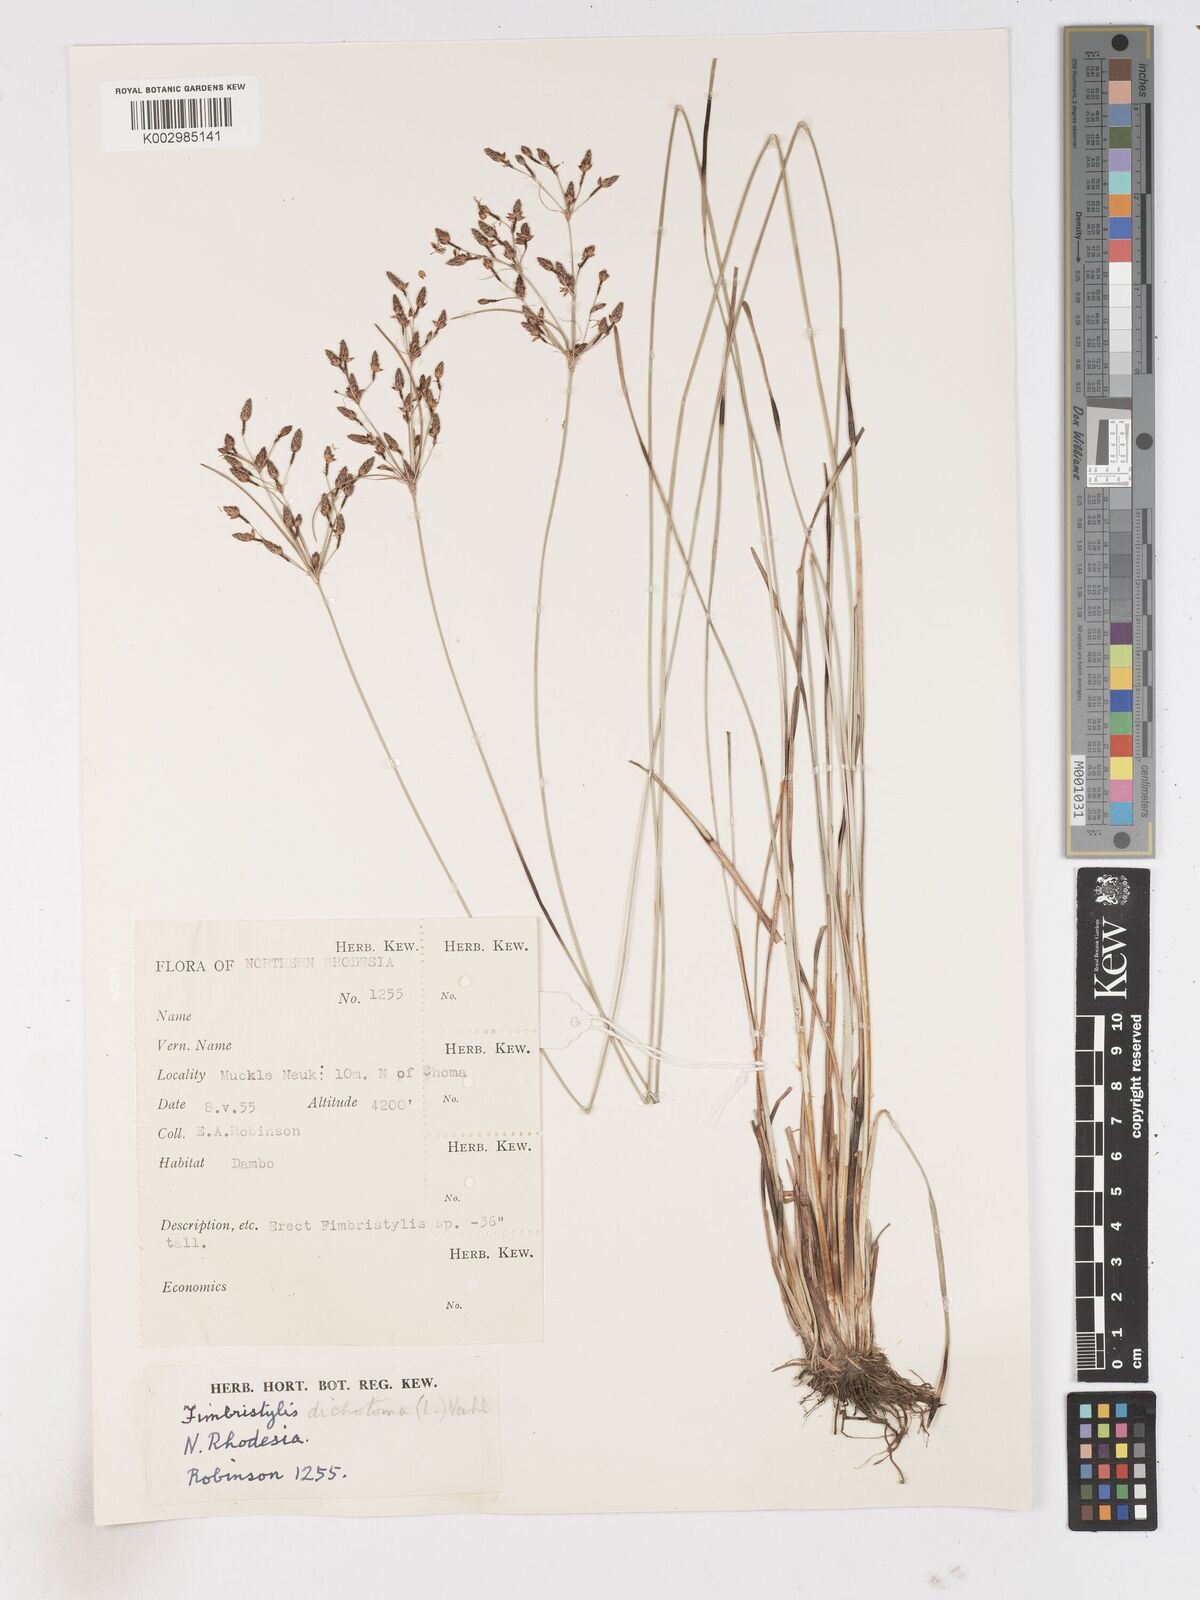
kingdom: Plantae
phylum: Tracheophyta
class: Liliopsida
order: Poales
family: Cyperaceae
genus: Fimbristylis
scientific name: Fimbristylis dichotoma
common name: Forked fimbry
